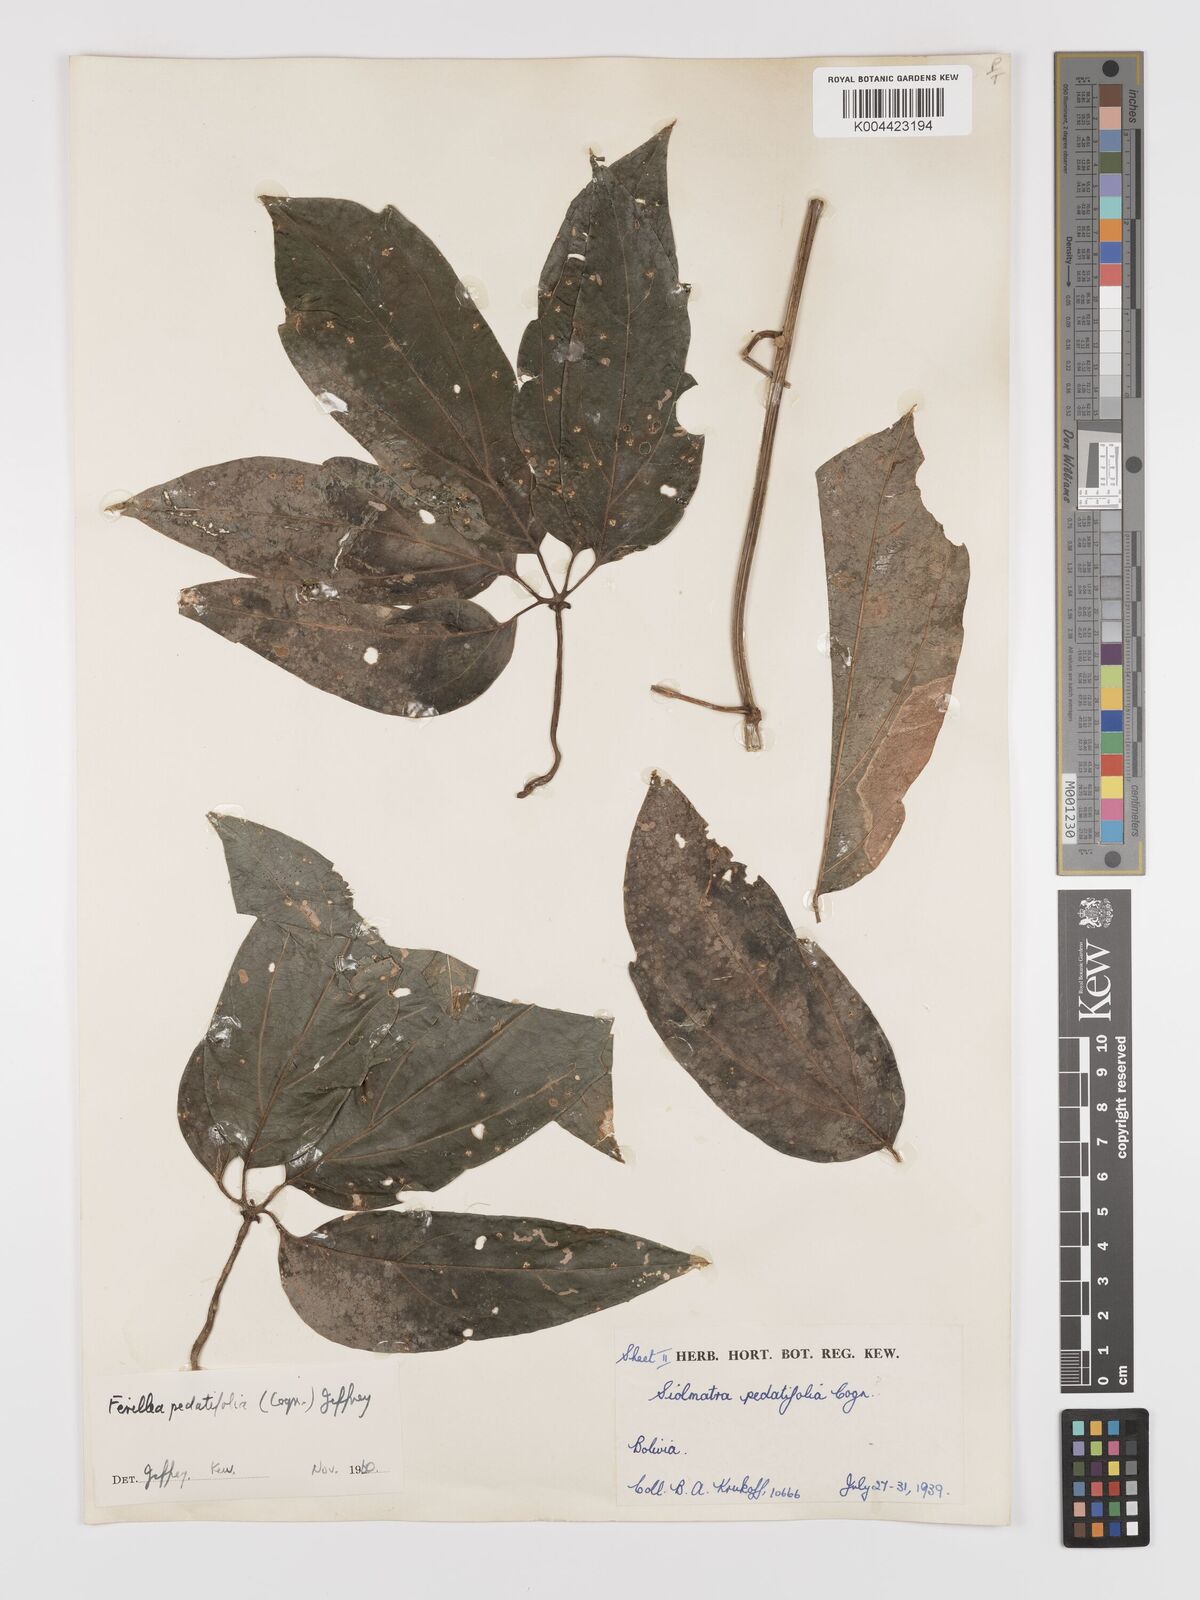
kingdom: Plantae
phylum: Tracheophyta
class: Magnoliopsida
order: Cucurbitales
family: Cucurbitaceae
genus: Fevillea
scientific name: Fevillea pedatifolia
